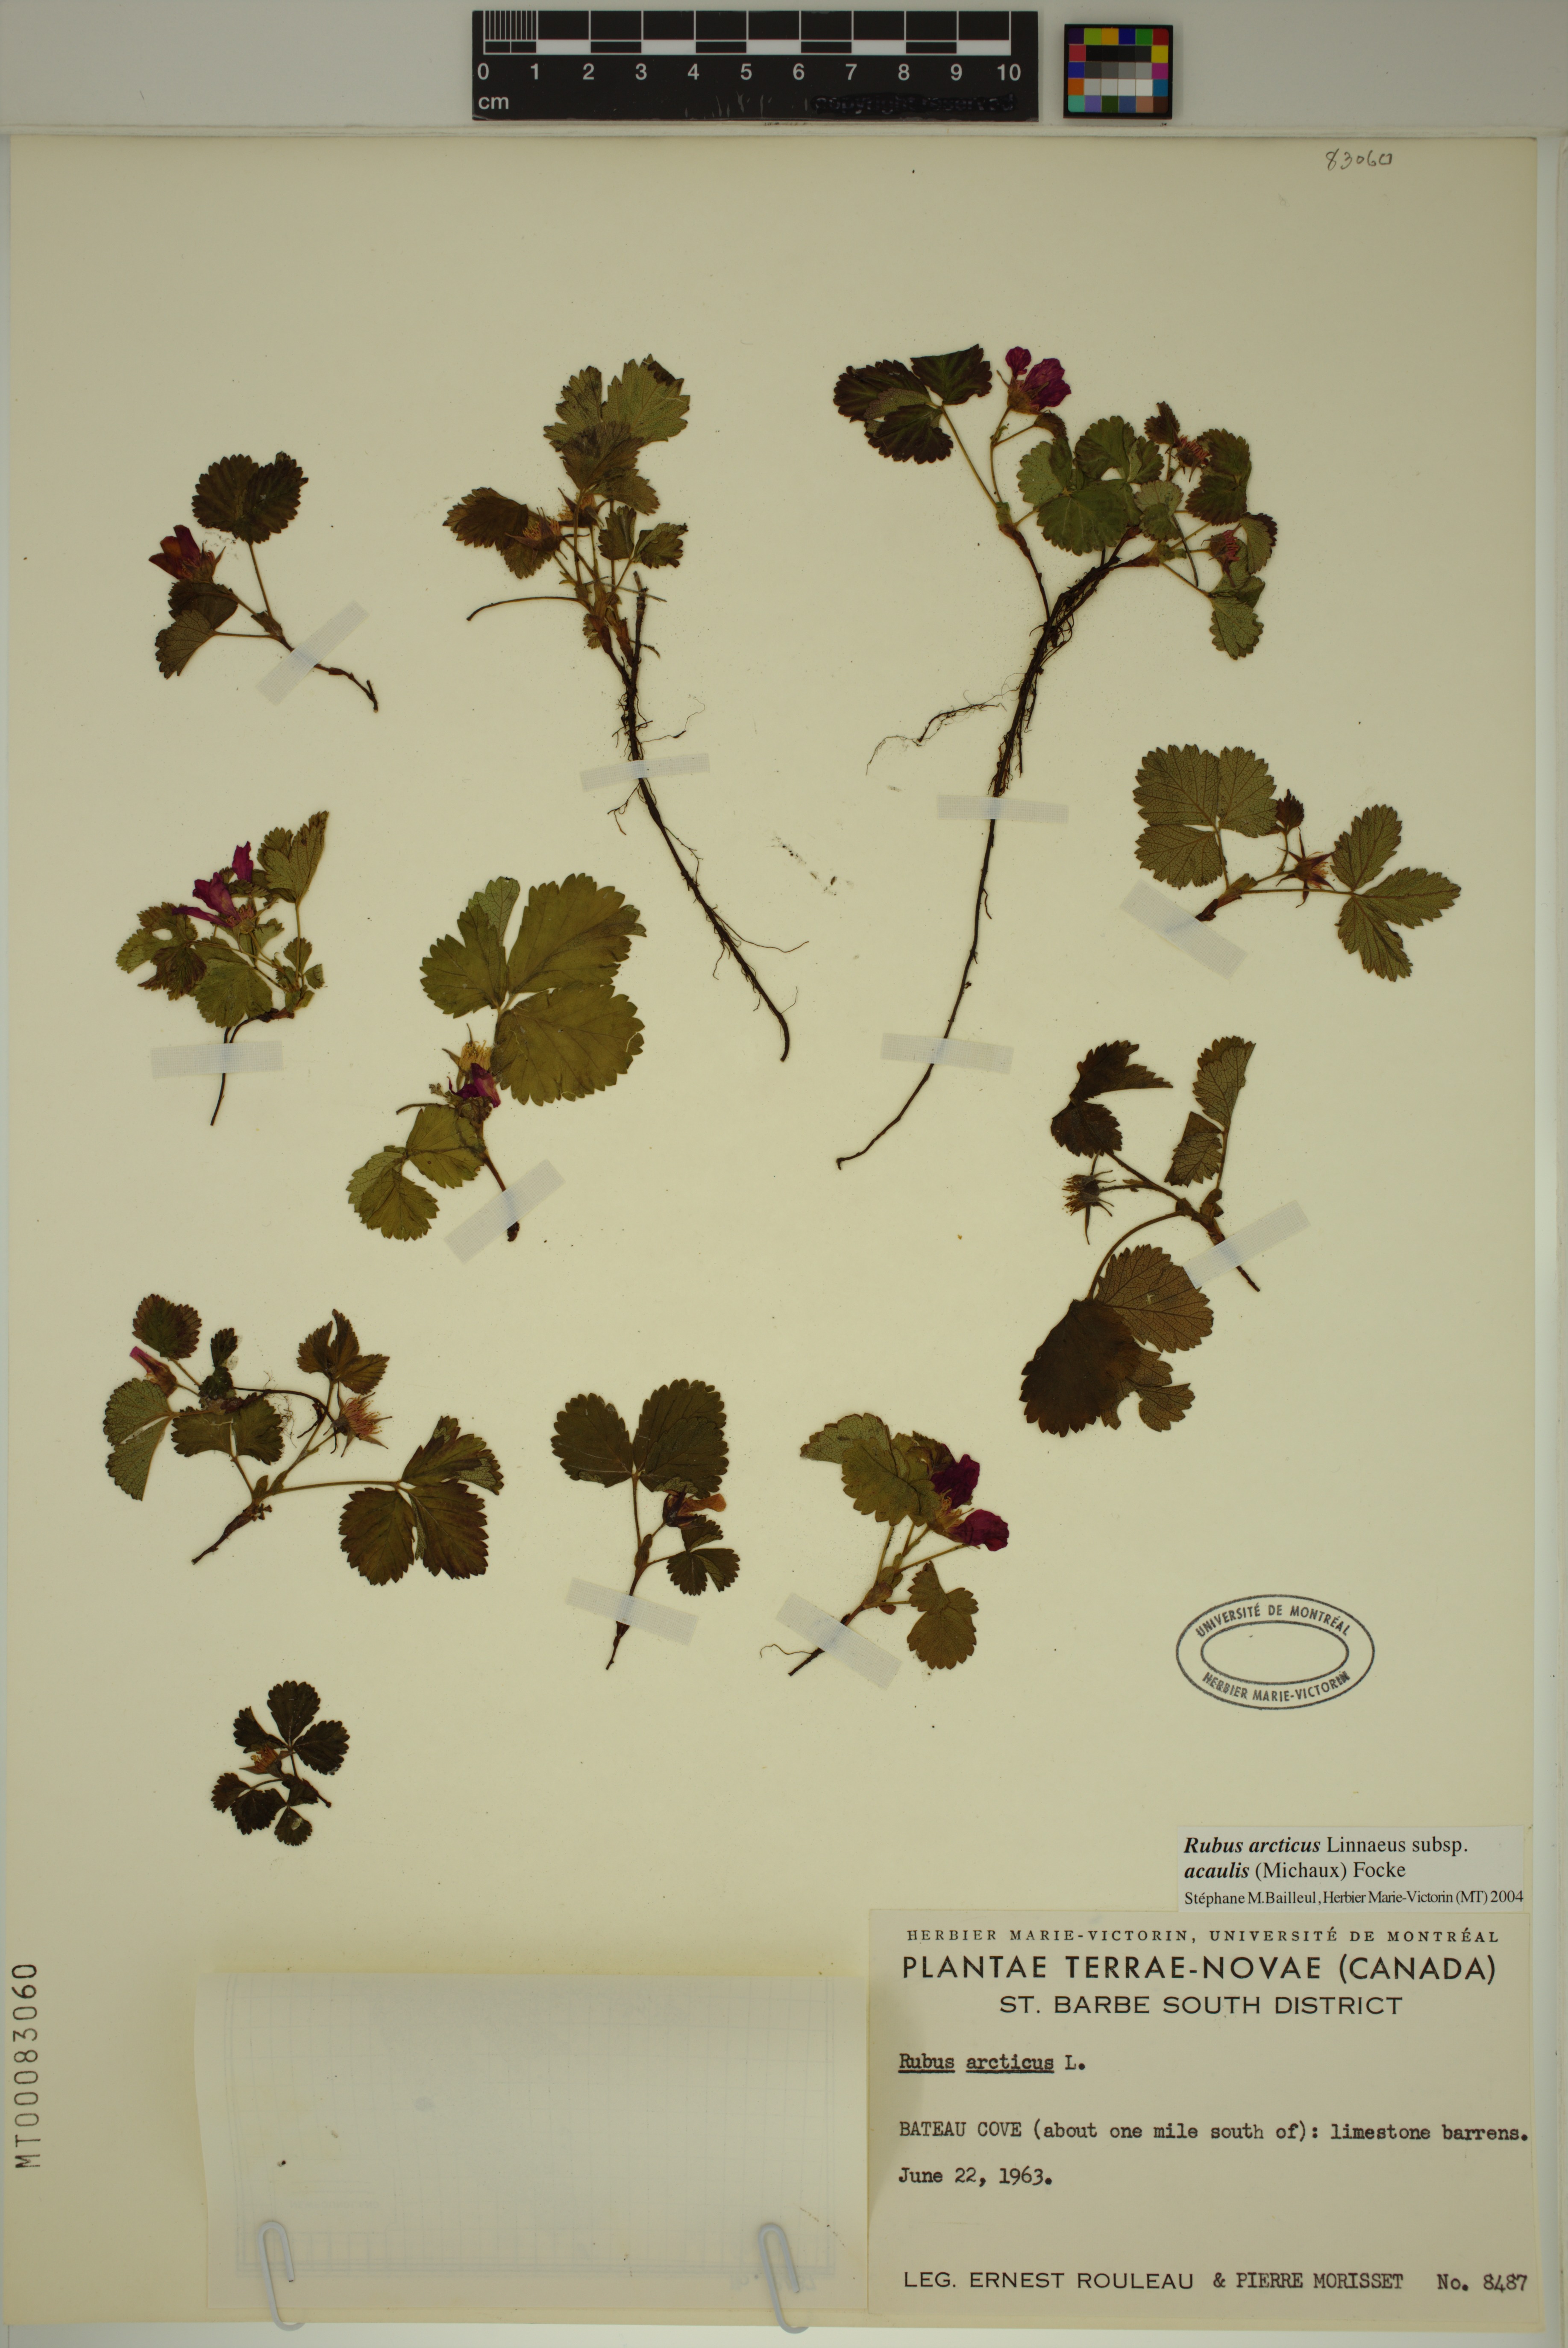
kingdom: Plantae
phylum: Tracheophyta
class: Magnoliopsida
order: Rosales
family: Rosaceae
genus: Rubus
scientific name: Rubus arcticus
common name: Arctic bramble
